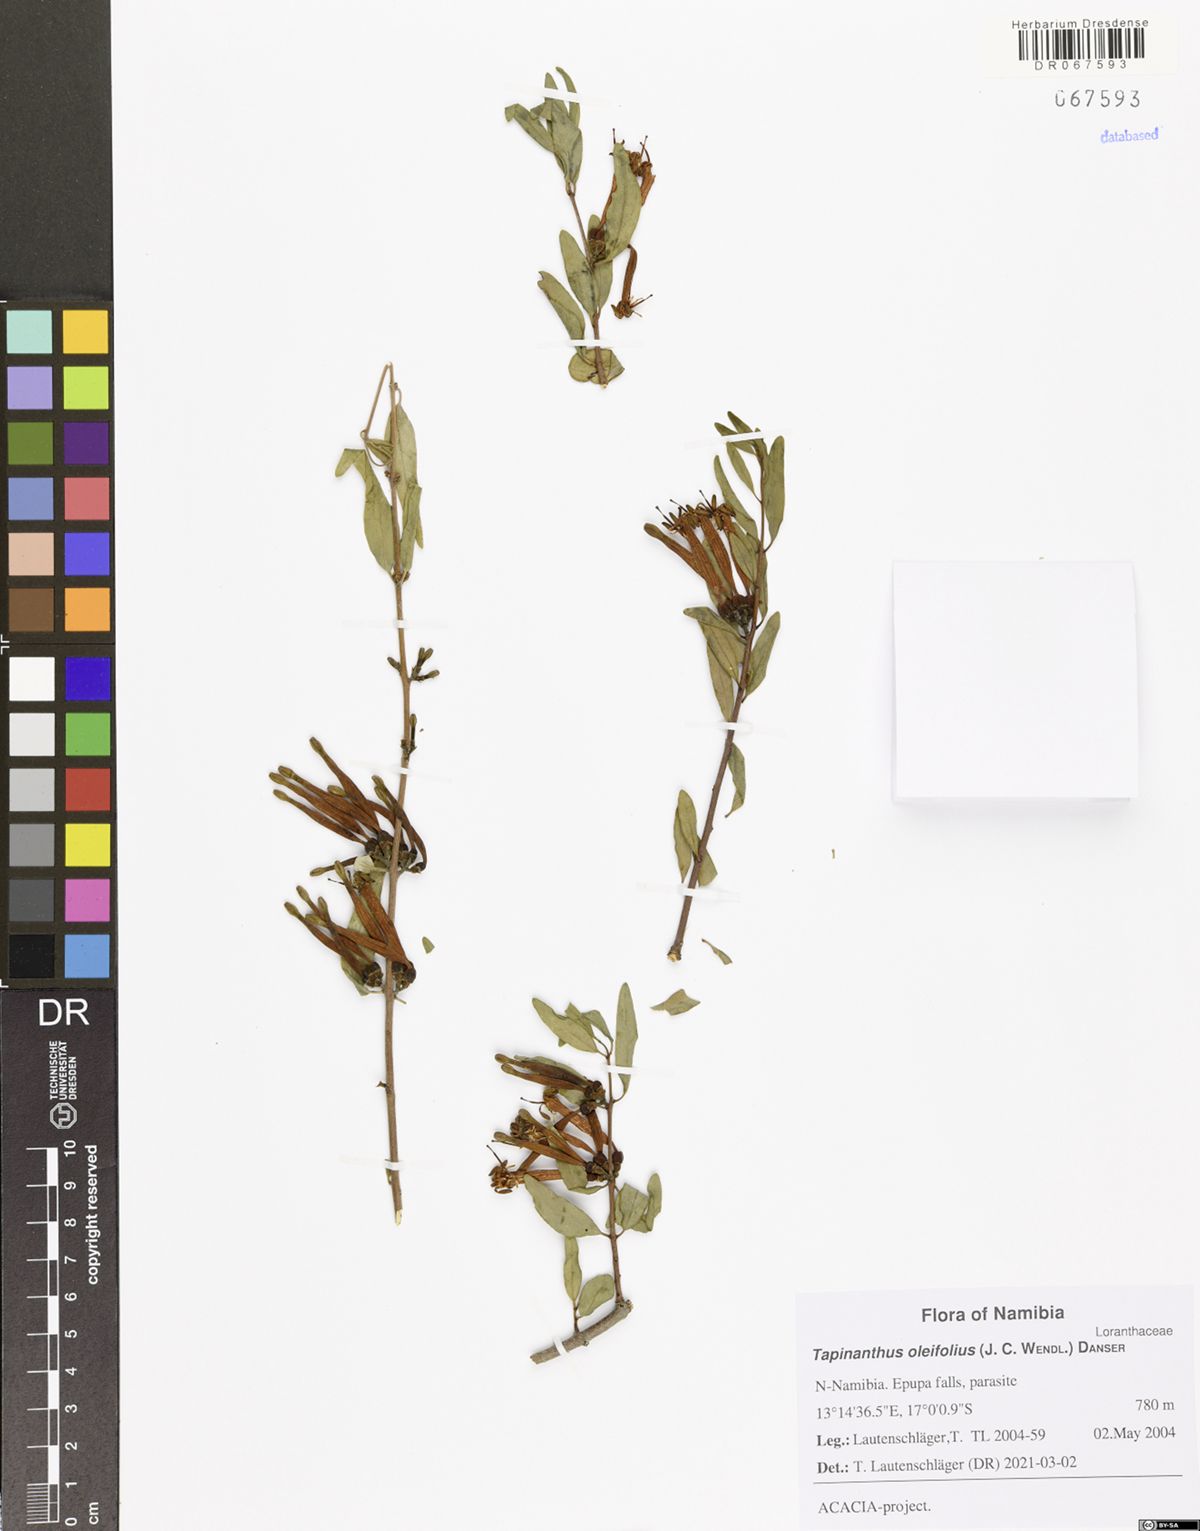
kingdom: Plantae
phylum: Tracheophyta
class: Magnoliopsida
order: Santalales
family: Loranthaceae
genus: Tapinanthus
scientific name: Tapinanthus oleifolius
